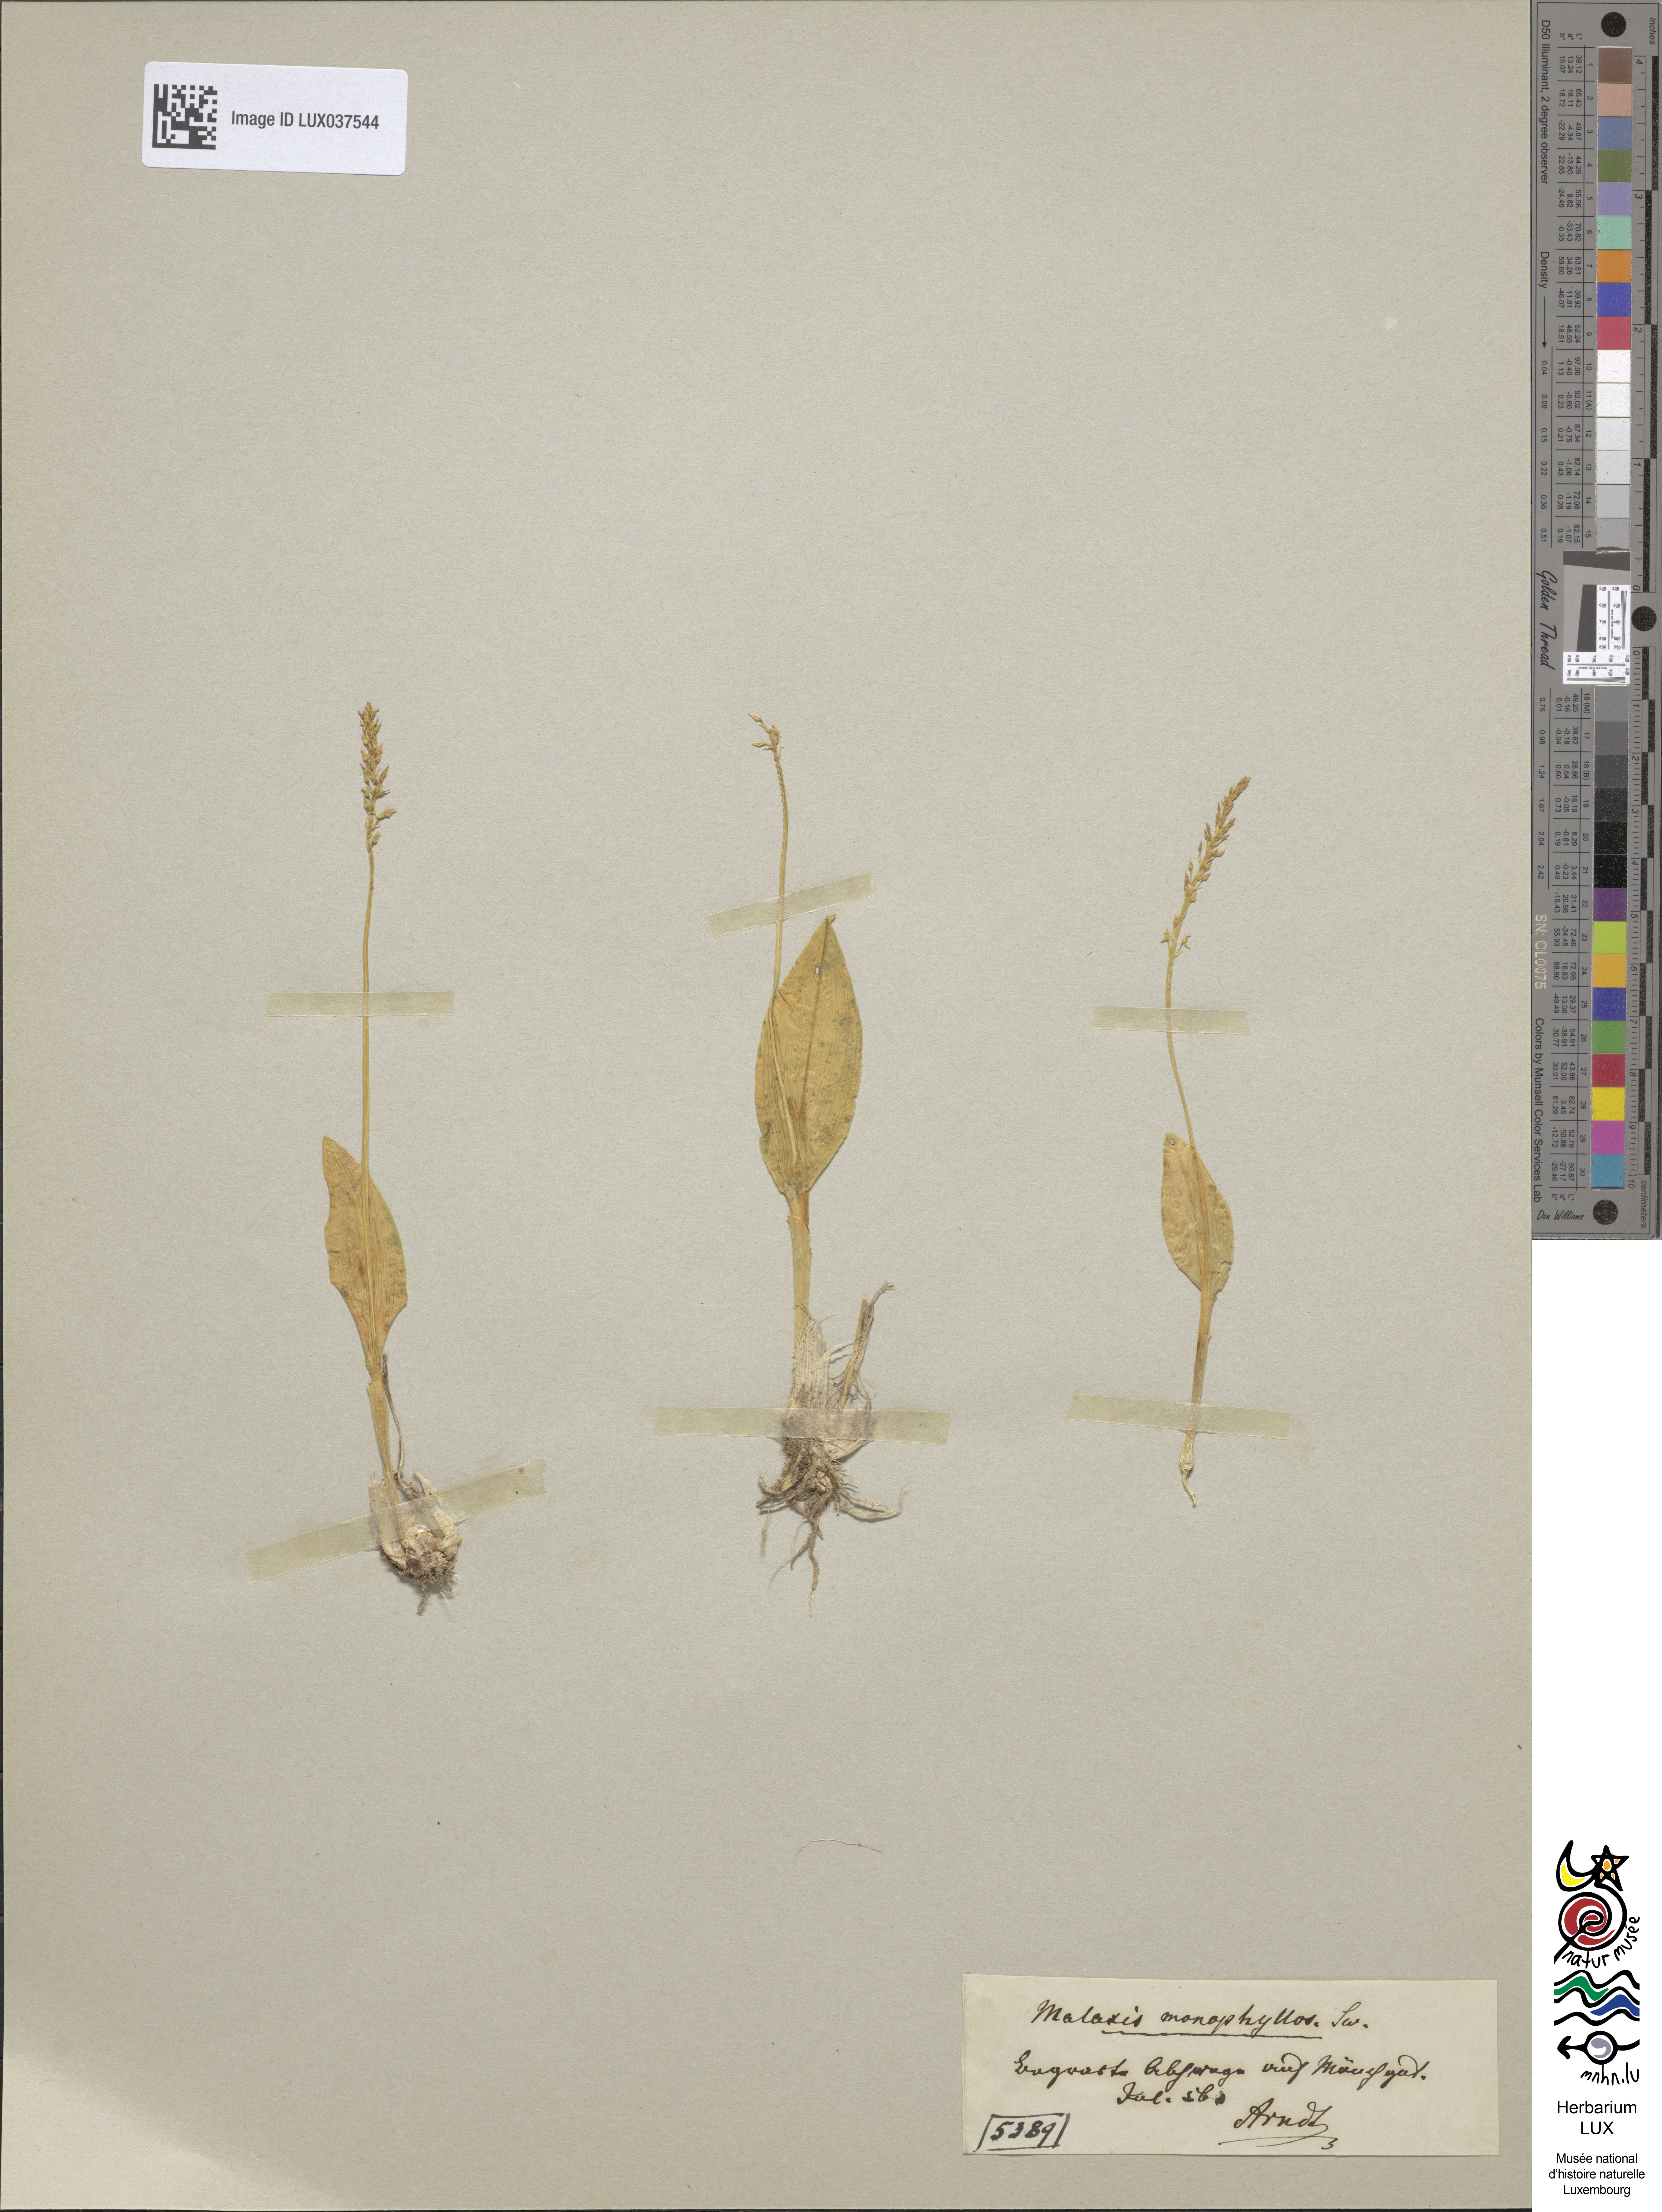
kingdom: Plantae
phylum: Tracheophyta
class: Liliopsida
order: Asparagales
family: Orchidaceae
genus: Malaxis
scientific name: Malaxis monophyllos
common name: White adder's-mouth
